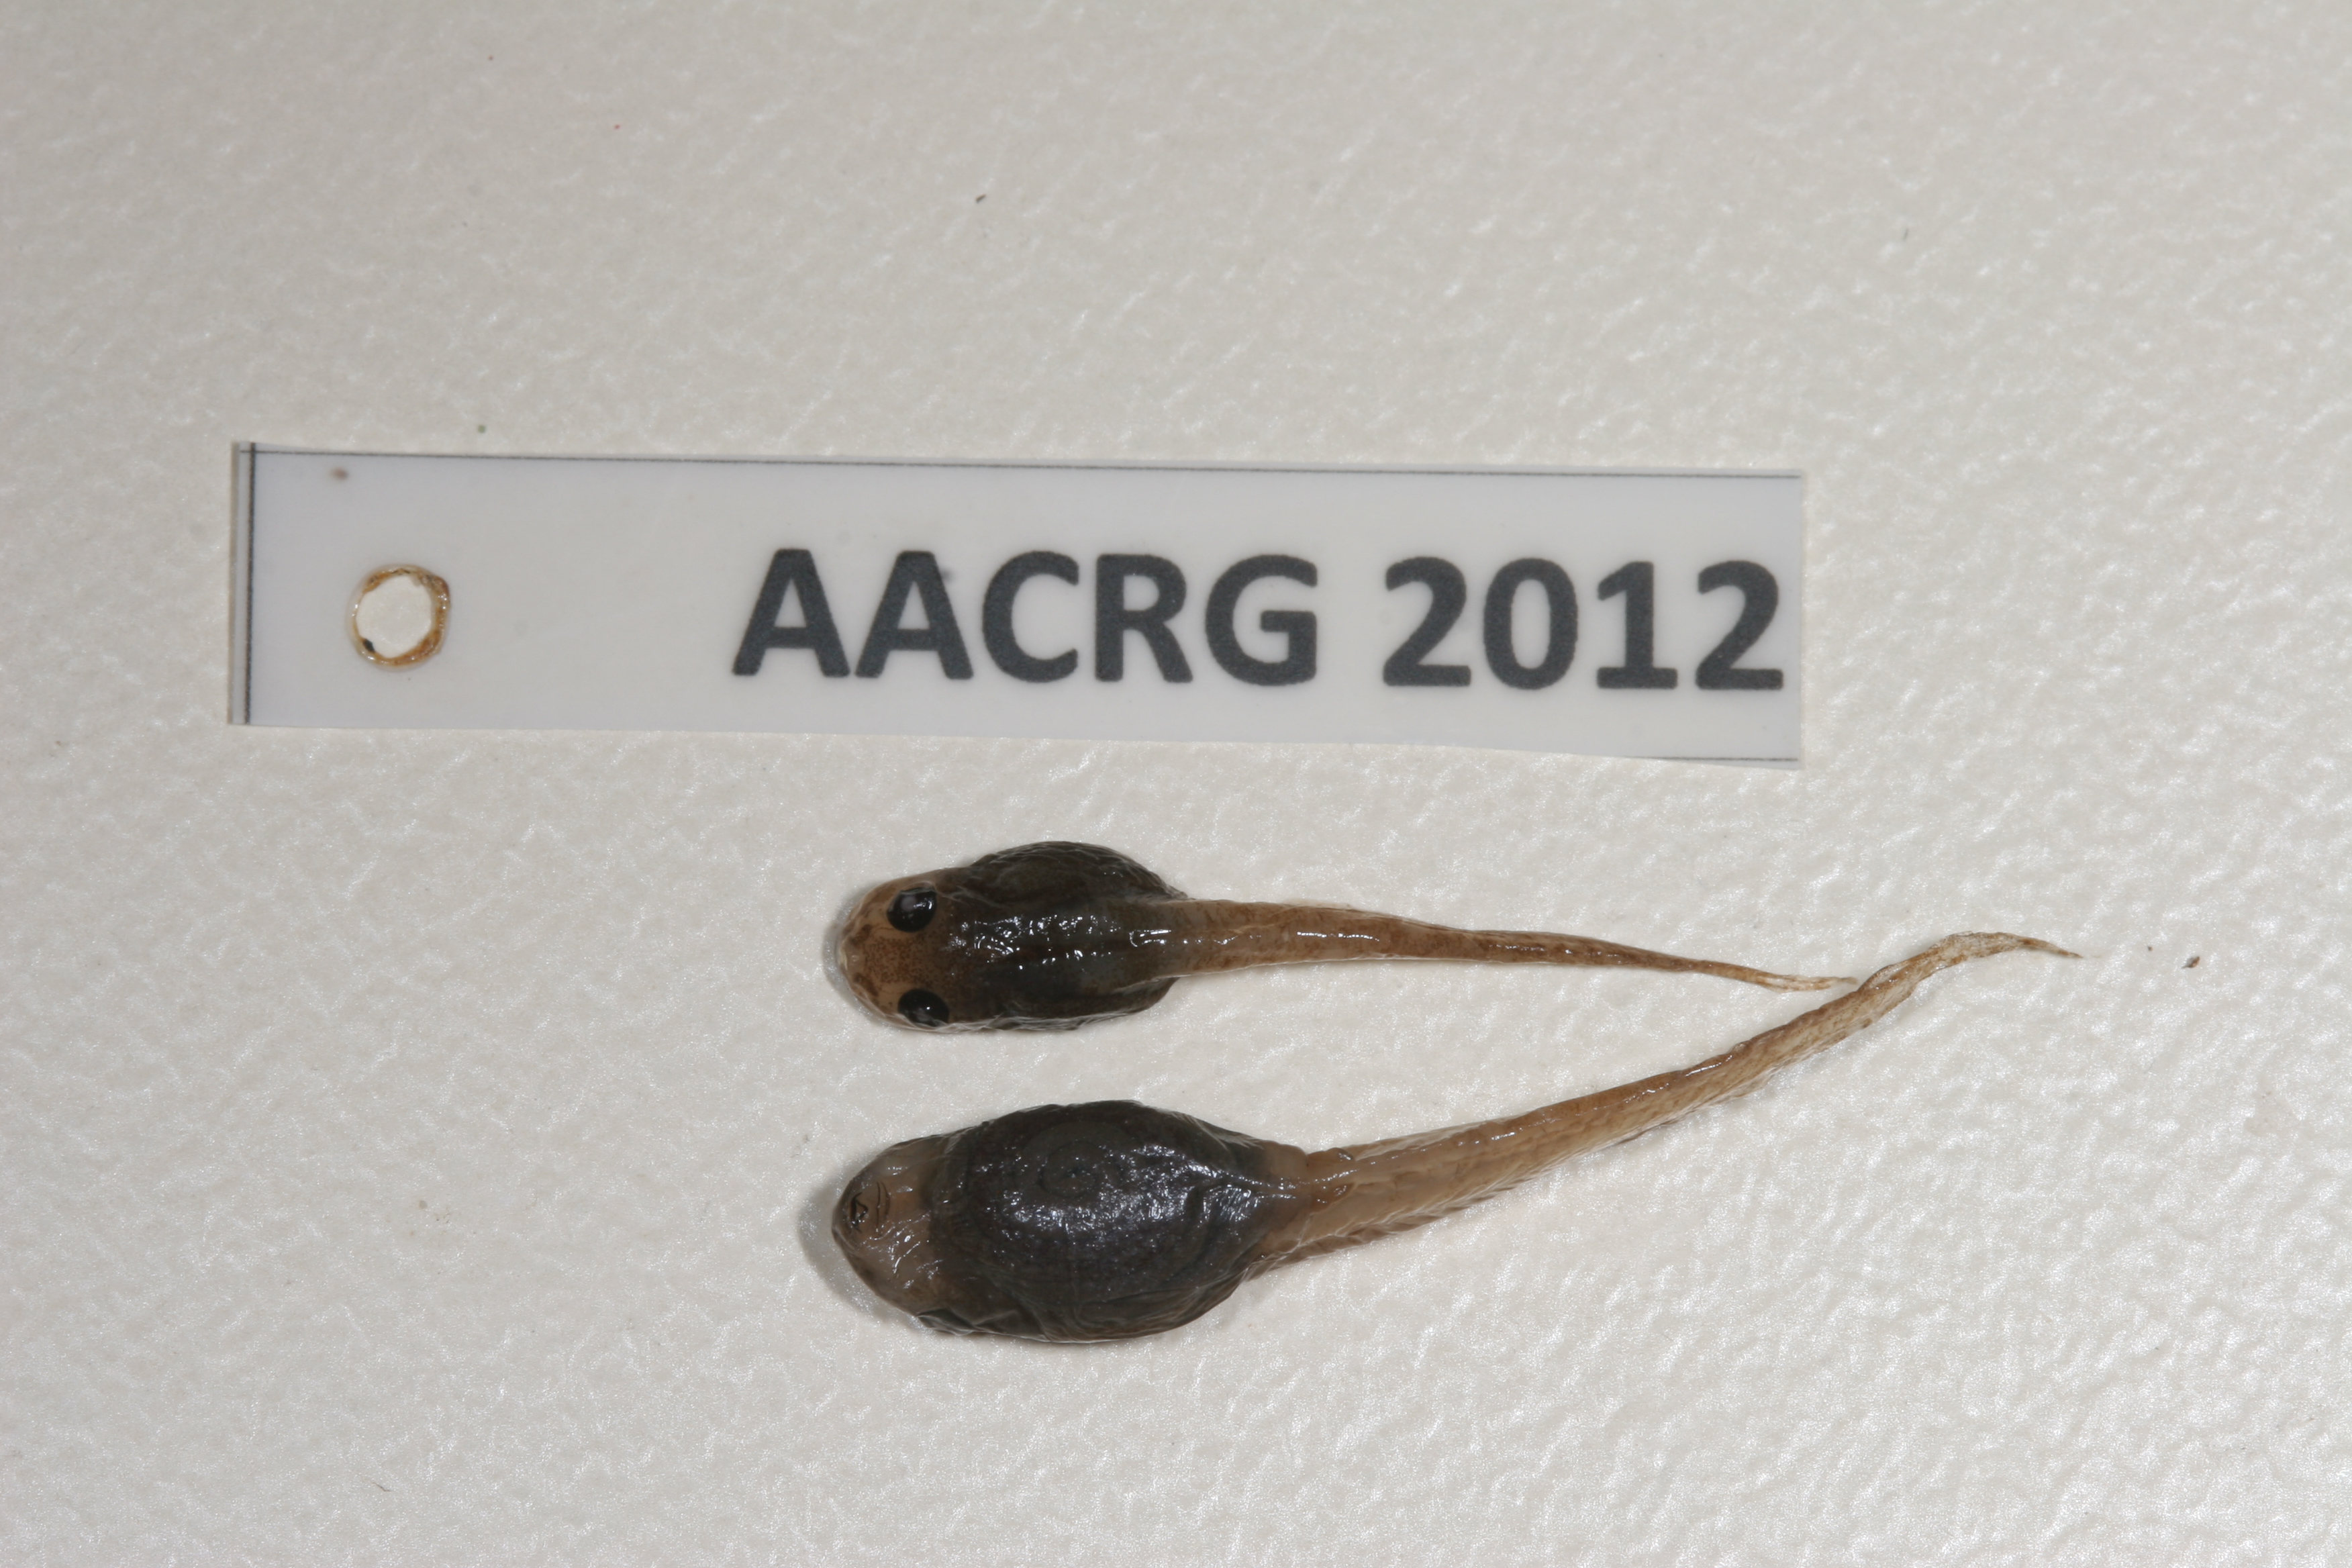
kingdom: Animalia
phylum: Chordata
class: Amphibia
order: Anura
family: Rhacophoridae
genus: Chiromantis
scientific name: Chiromantis xerampelina
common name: African gray treefrog
